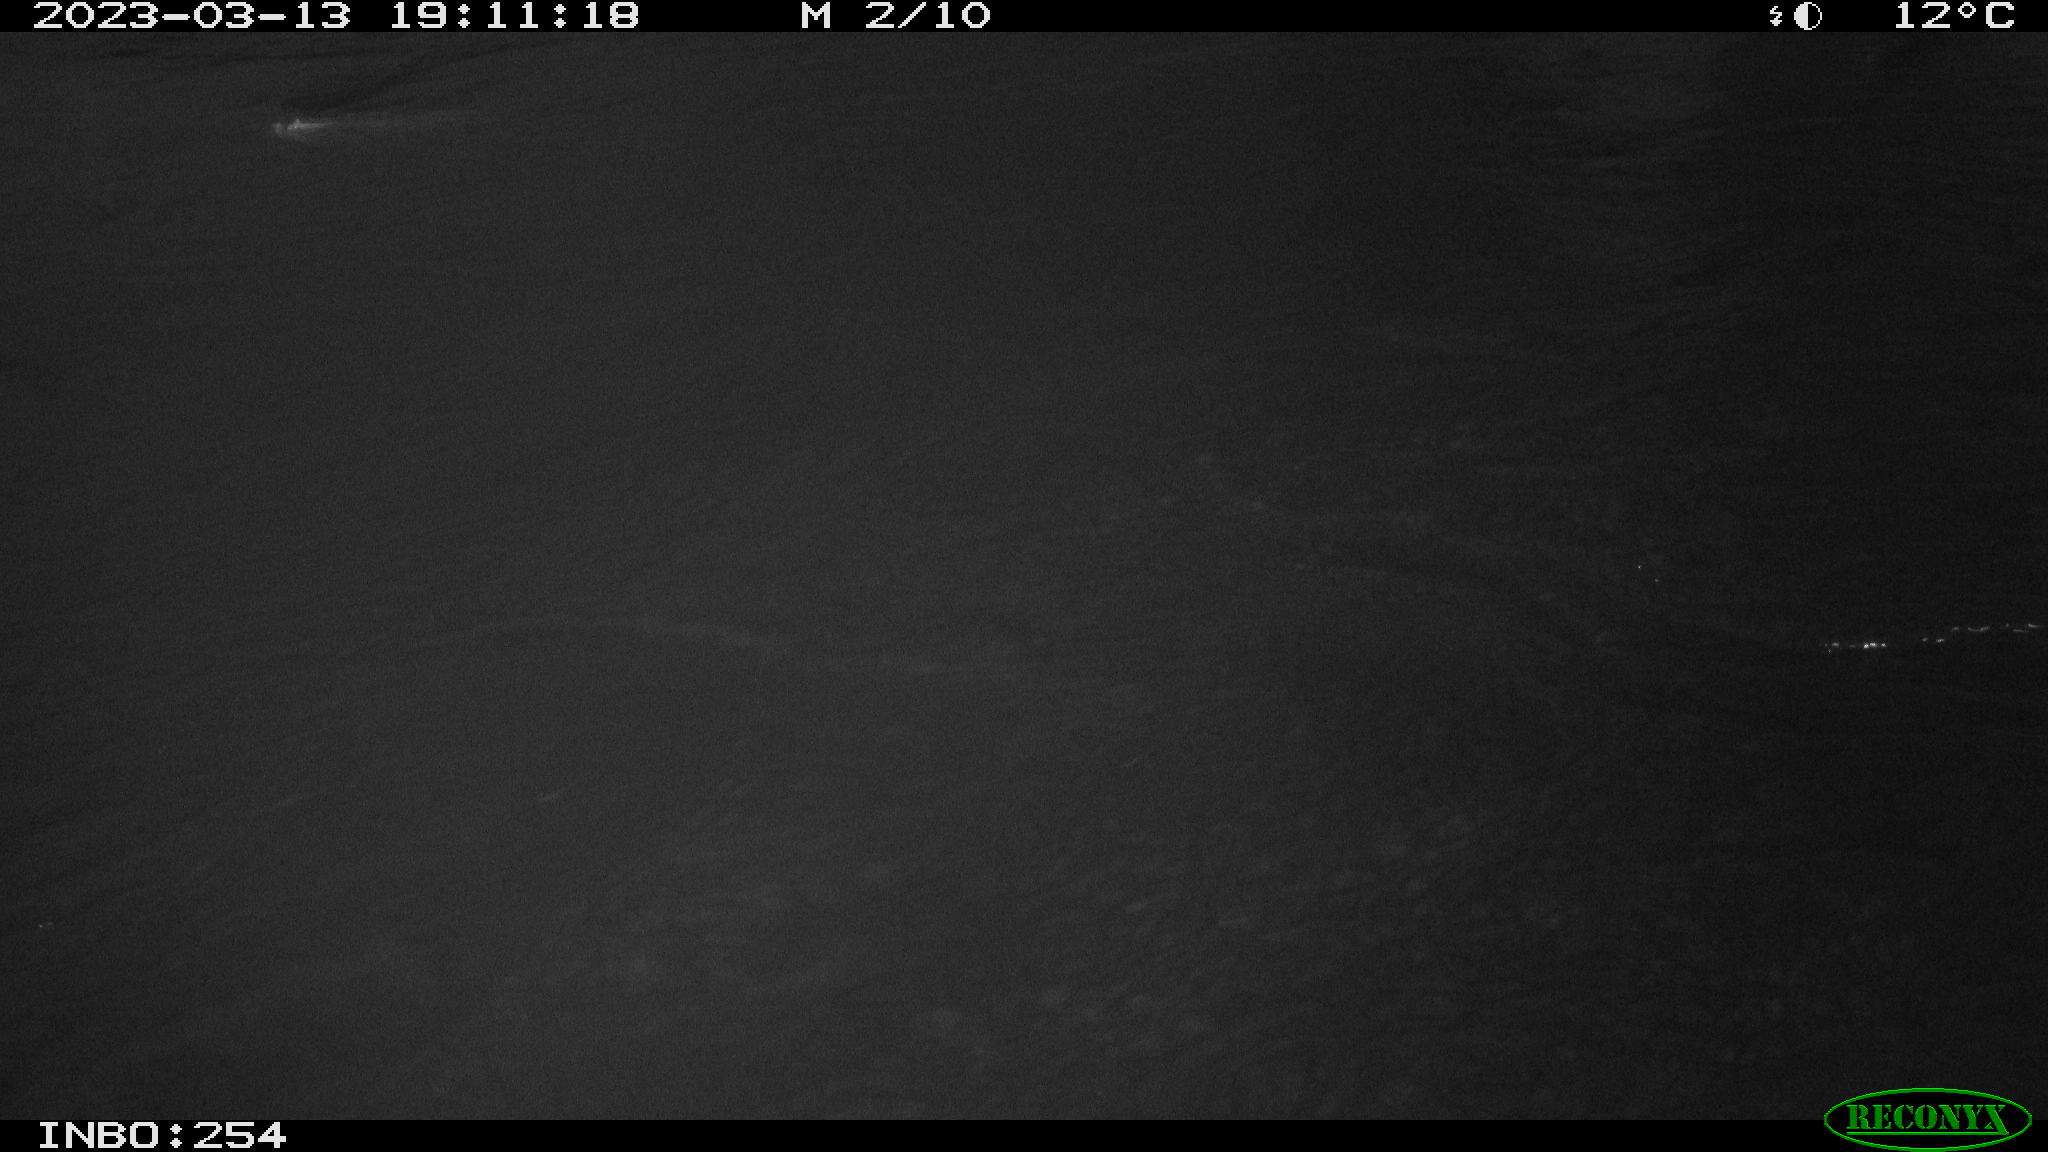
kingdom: Animalia
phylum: Chordata
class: Aves
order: Anseriformes
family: Anatidae
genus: Anas
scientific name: Anas
